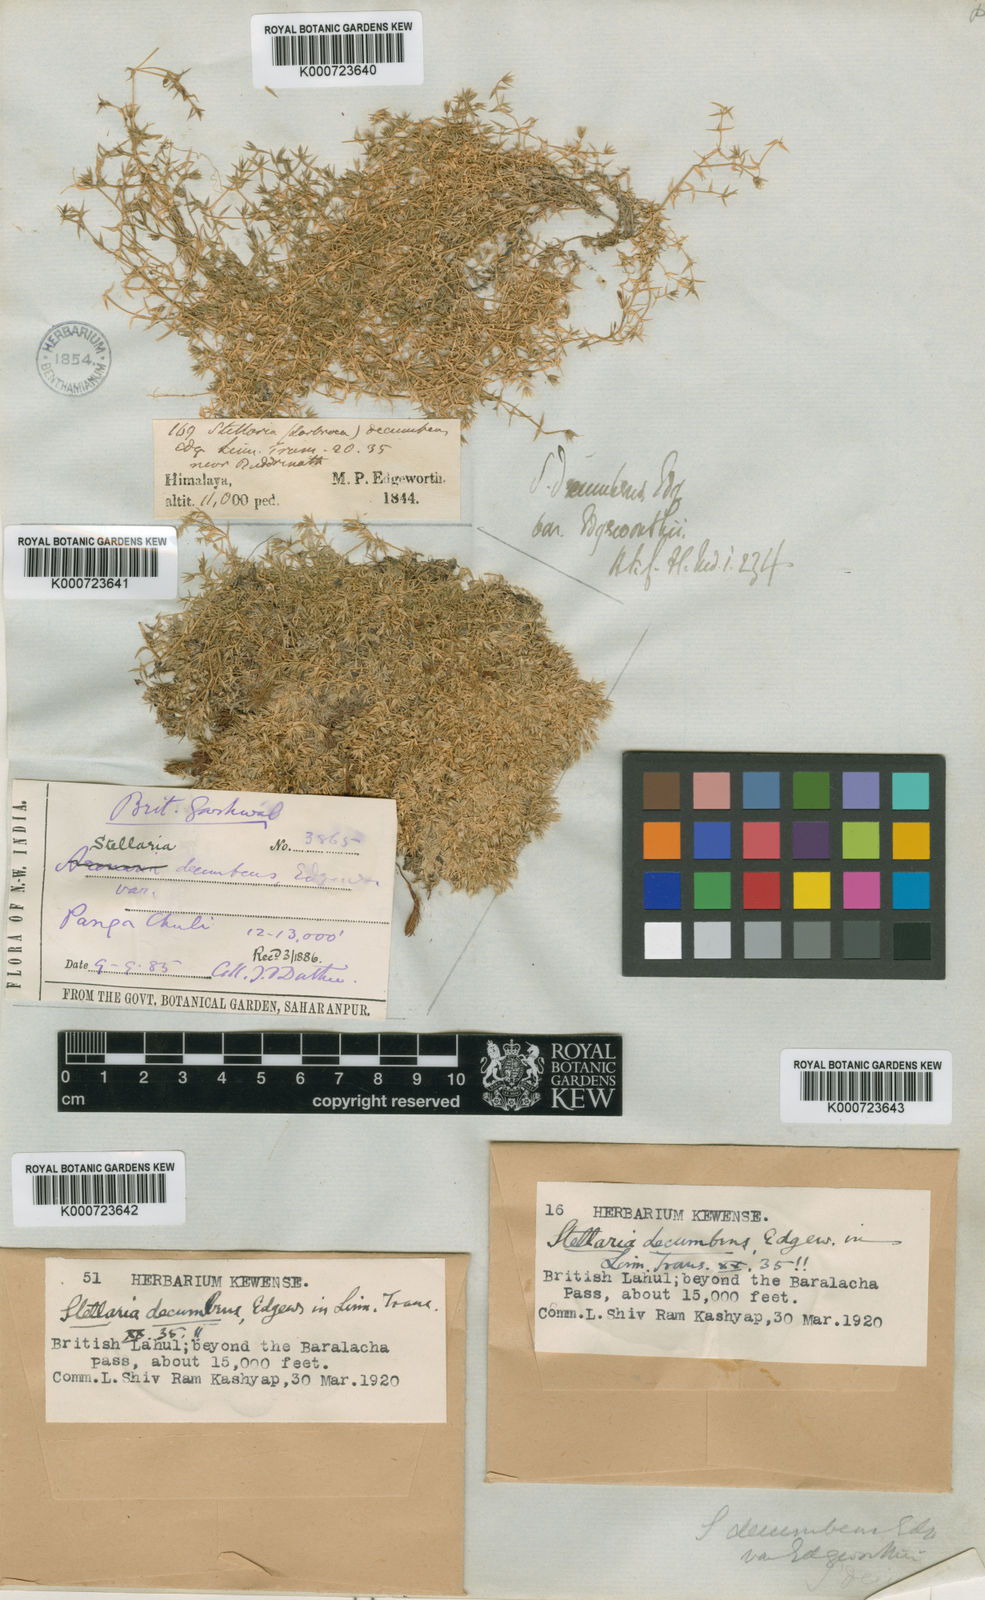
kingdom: Plantae
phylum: Tracheophyta
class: Magnoliopsida
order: Caryophyllales
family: Caryophyllaceae
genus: Stellaria
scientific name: Stellaria decumbens
